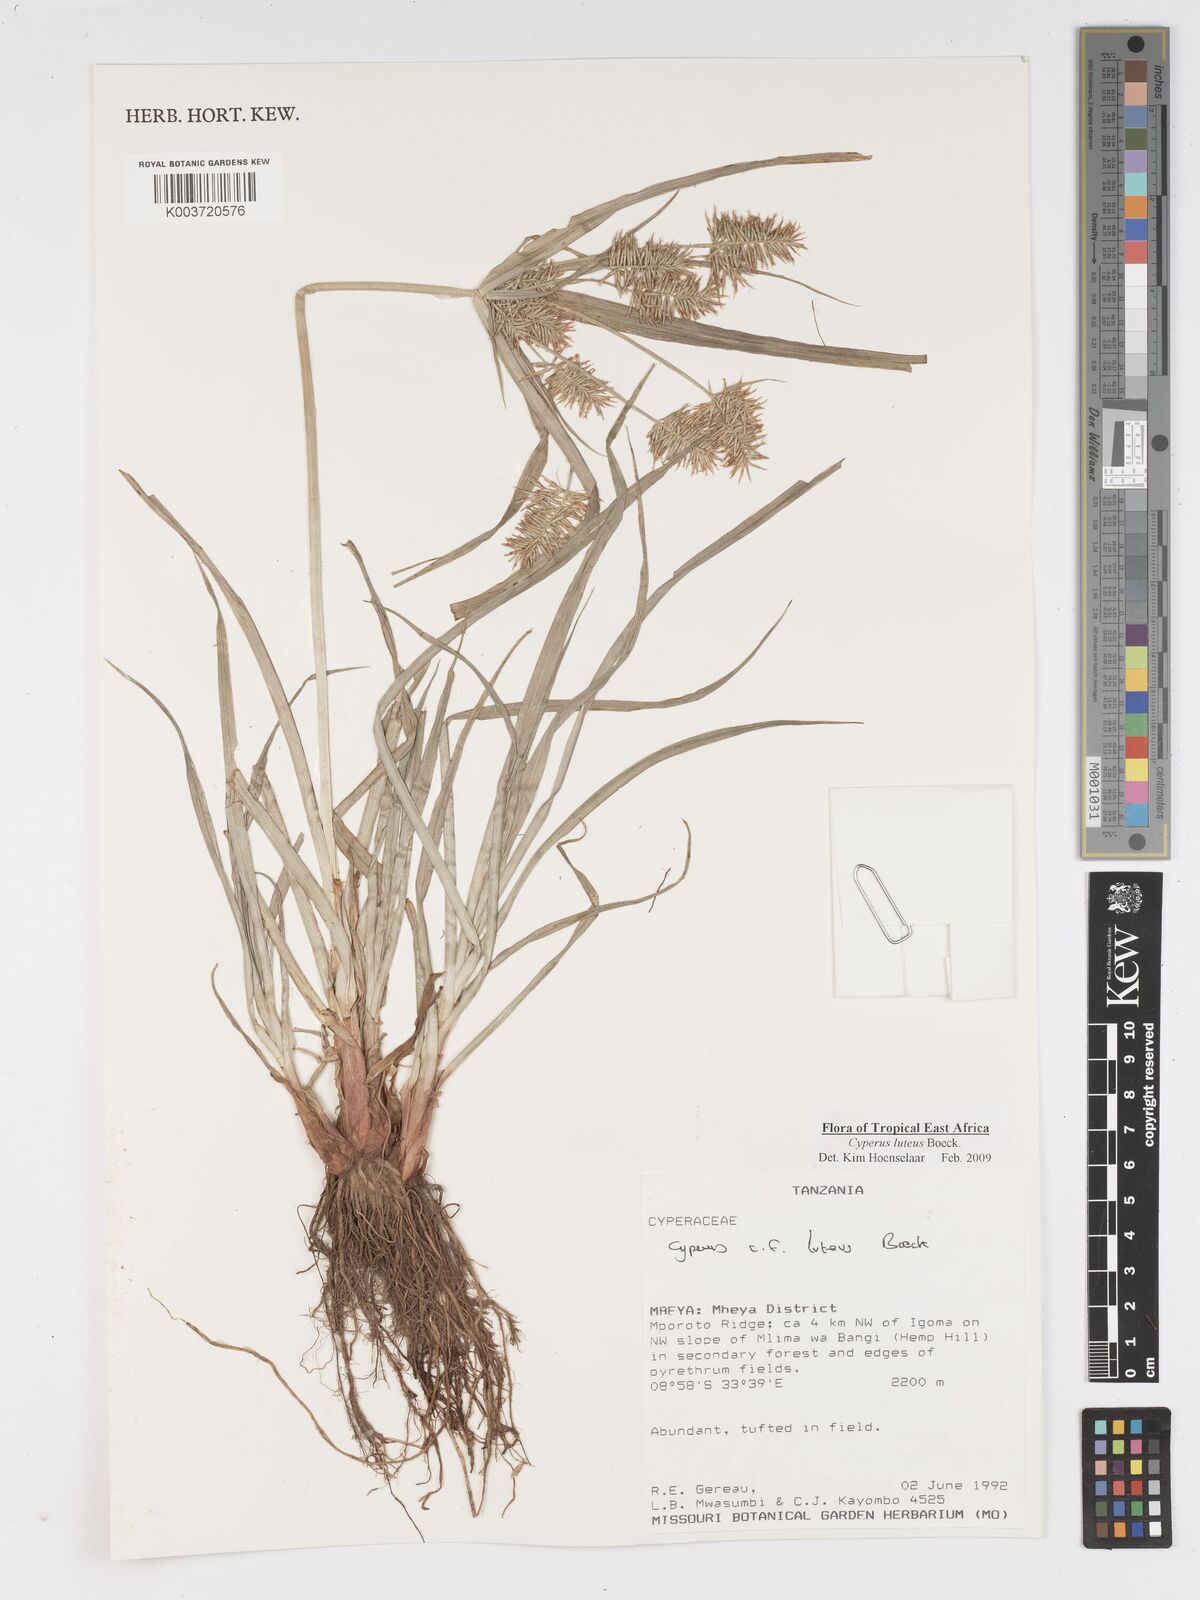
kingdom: Plantae
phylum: Tracheophyta
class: Liliopsida
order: Poales
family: Cyperaceae
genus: Cyperus
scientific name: Cyperus luteus
